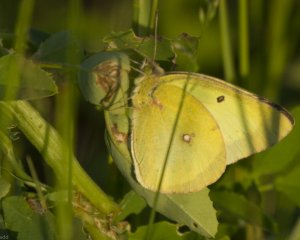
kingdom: Animalia
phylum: Arthropoda
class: Insecta
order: Lepidoptera
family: Pieridae
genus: Colias
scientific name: Colias philodice
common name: Clouded Sulphur
